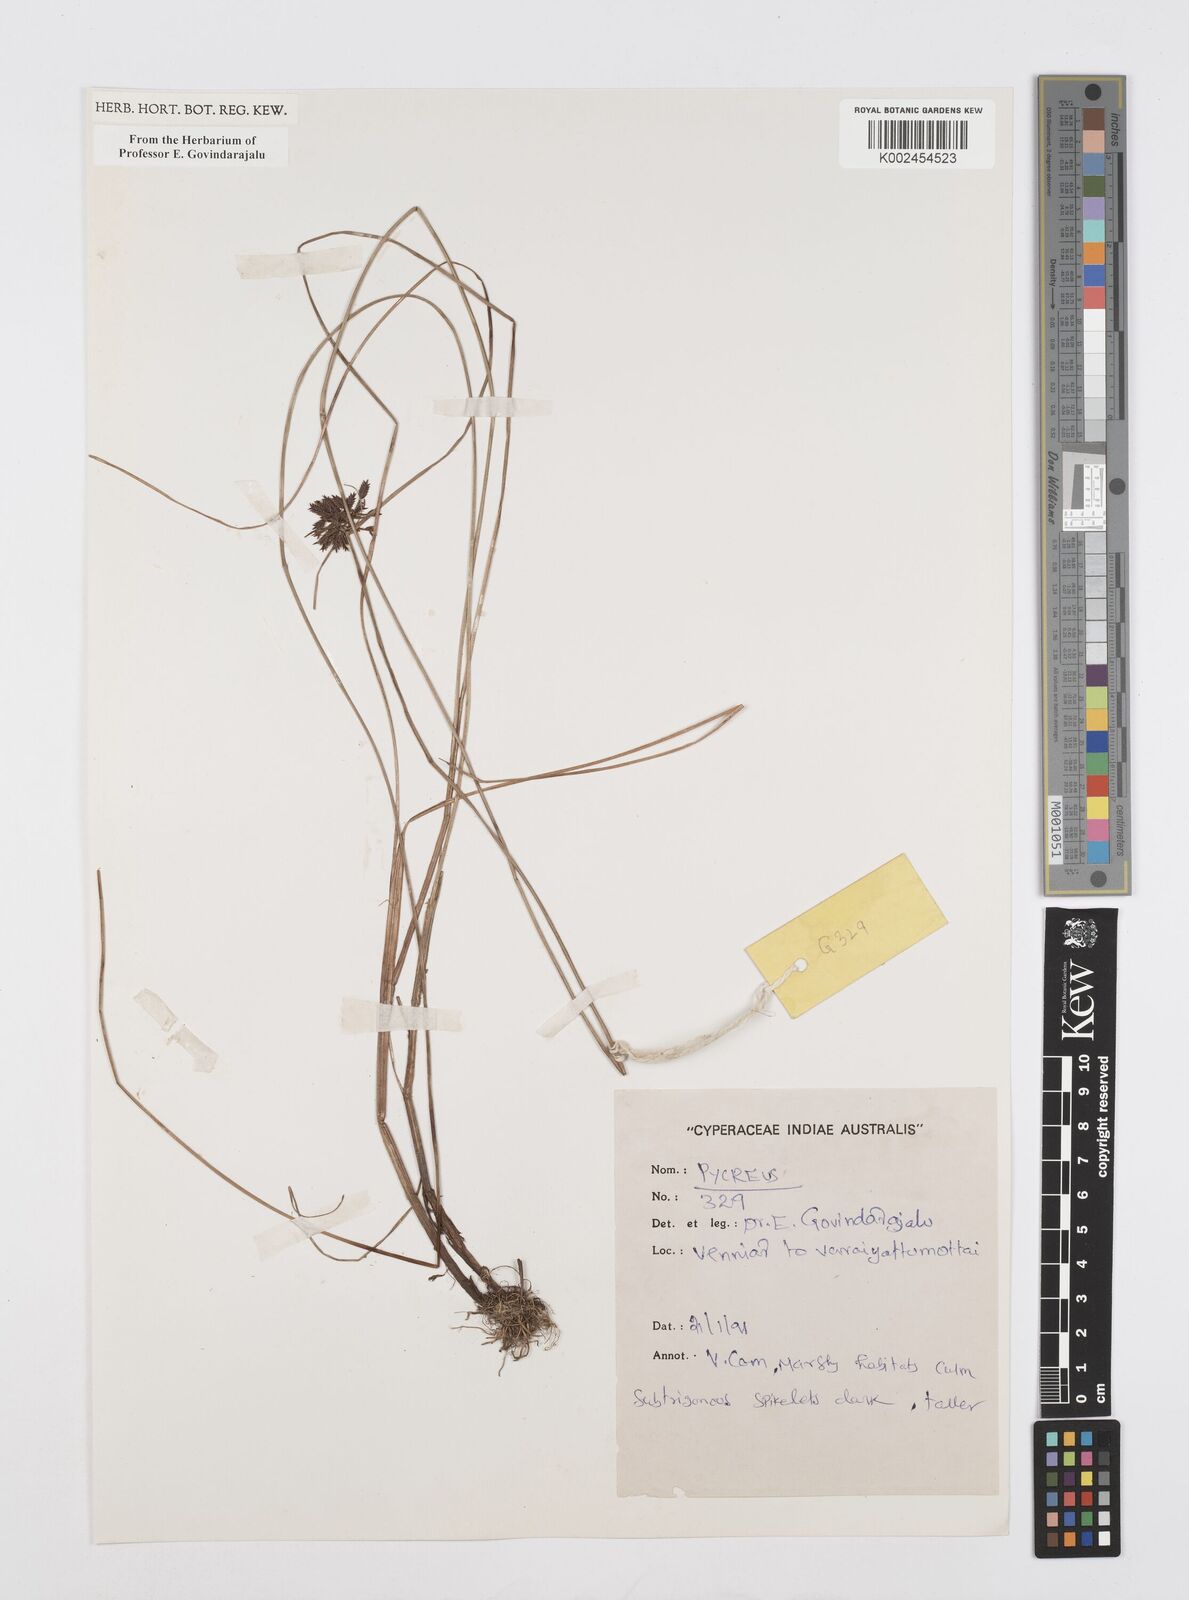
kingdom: Plantae
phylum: Tracheophyta
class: Liliopsida
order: Poales
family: Cyperaceae
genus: Cyperus
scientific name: Cyperus
